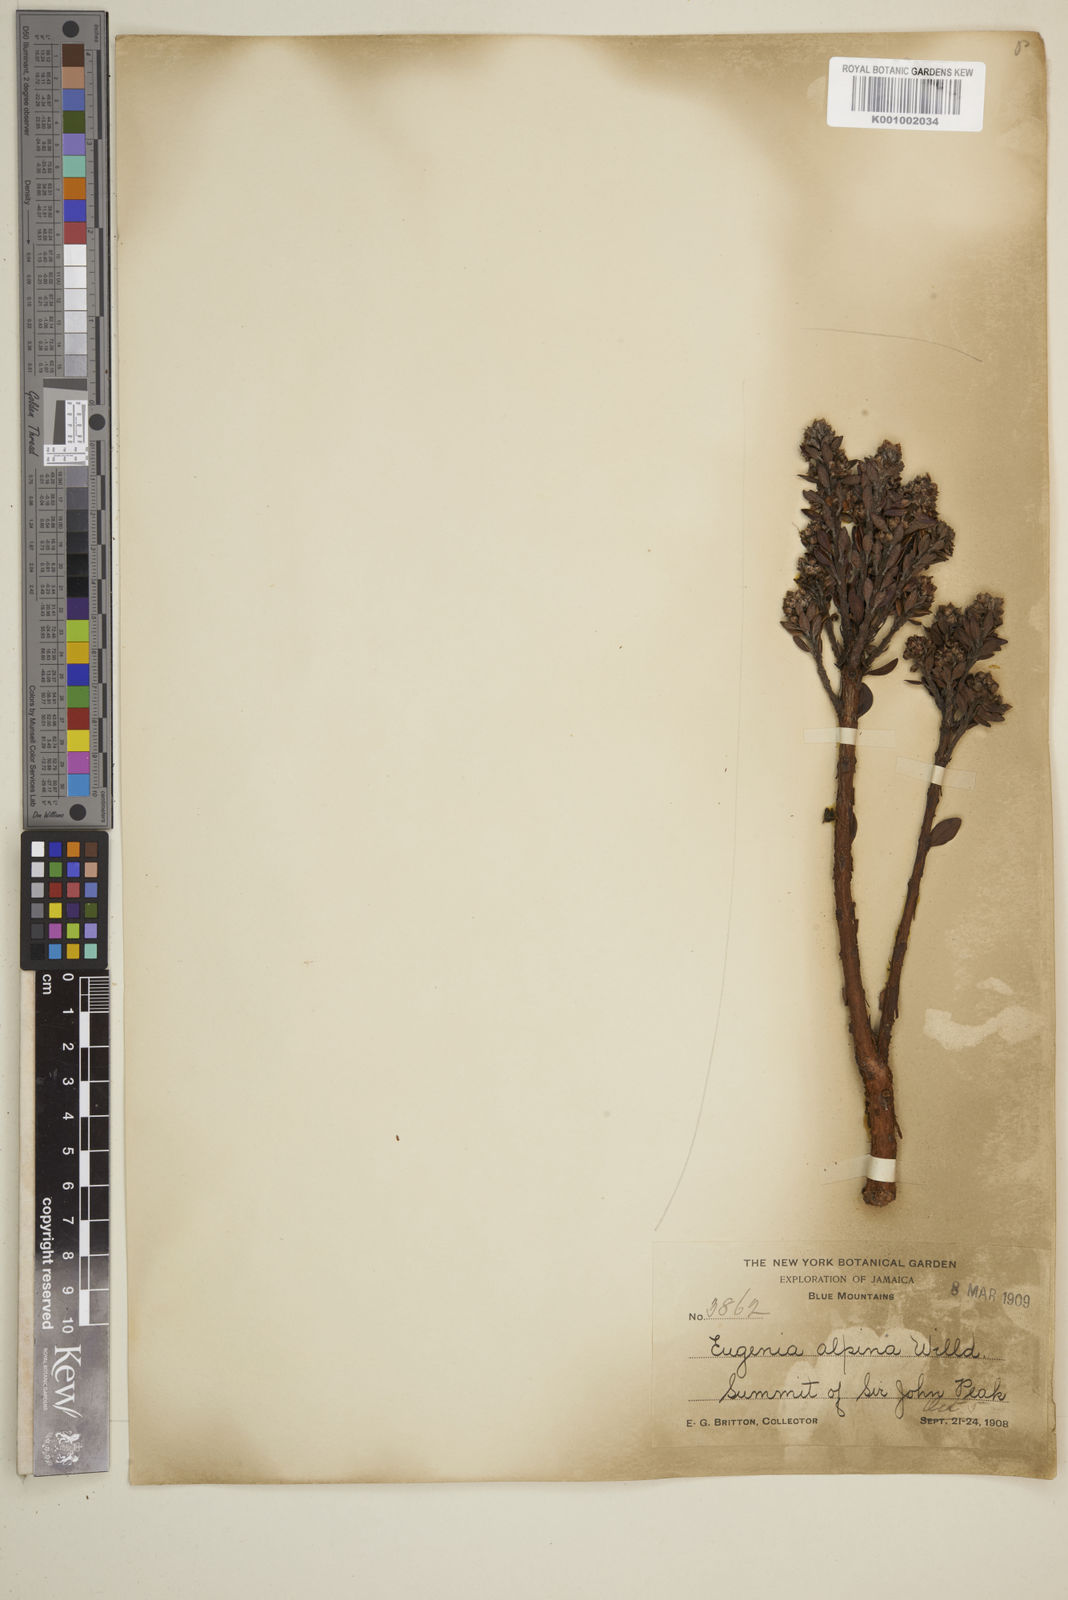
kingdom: Plantae
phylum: Tracheophyta
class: Magnoliopsida
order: Myrtales
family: Myrtaceae
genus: Eugenia
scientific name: Eugenia alpina
